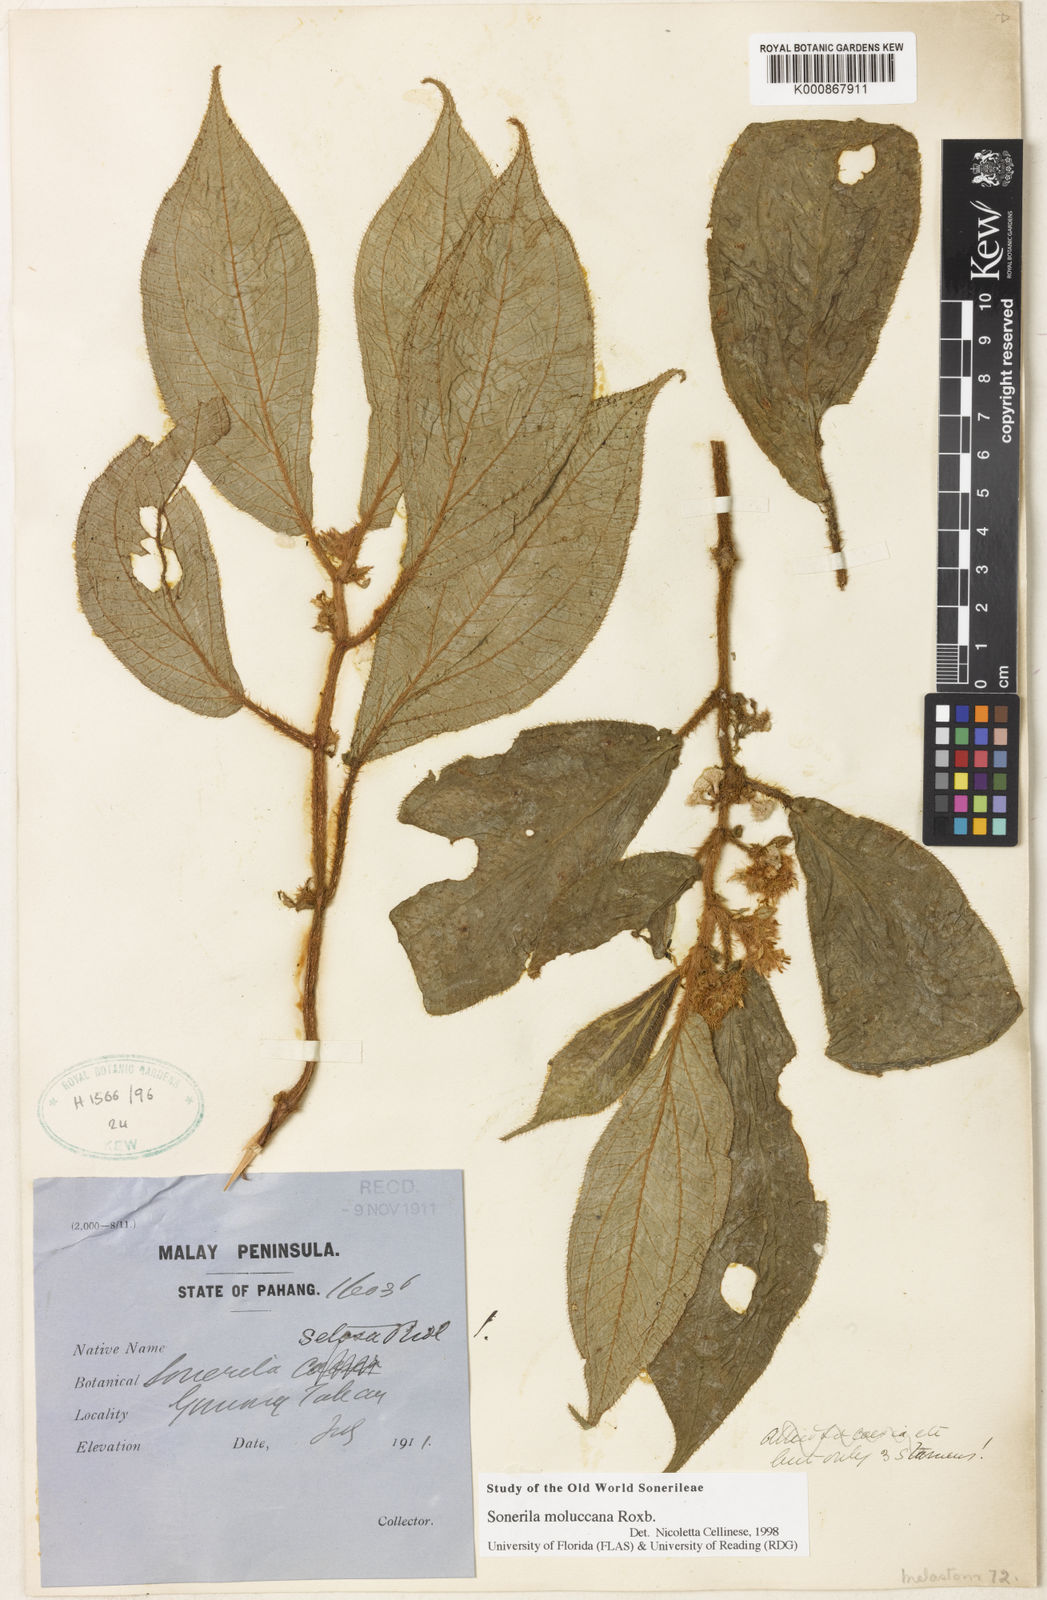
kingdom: Plantae
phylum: Tracheophyta
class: Magnoliopsida
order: Myrtales
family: Melastomataceae
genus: Sonerila
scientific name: Sonerila moluccana
